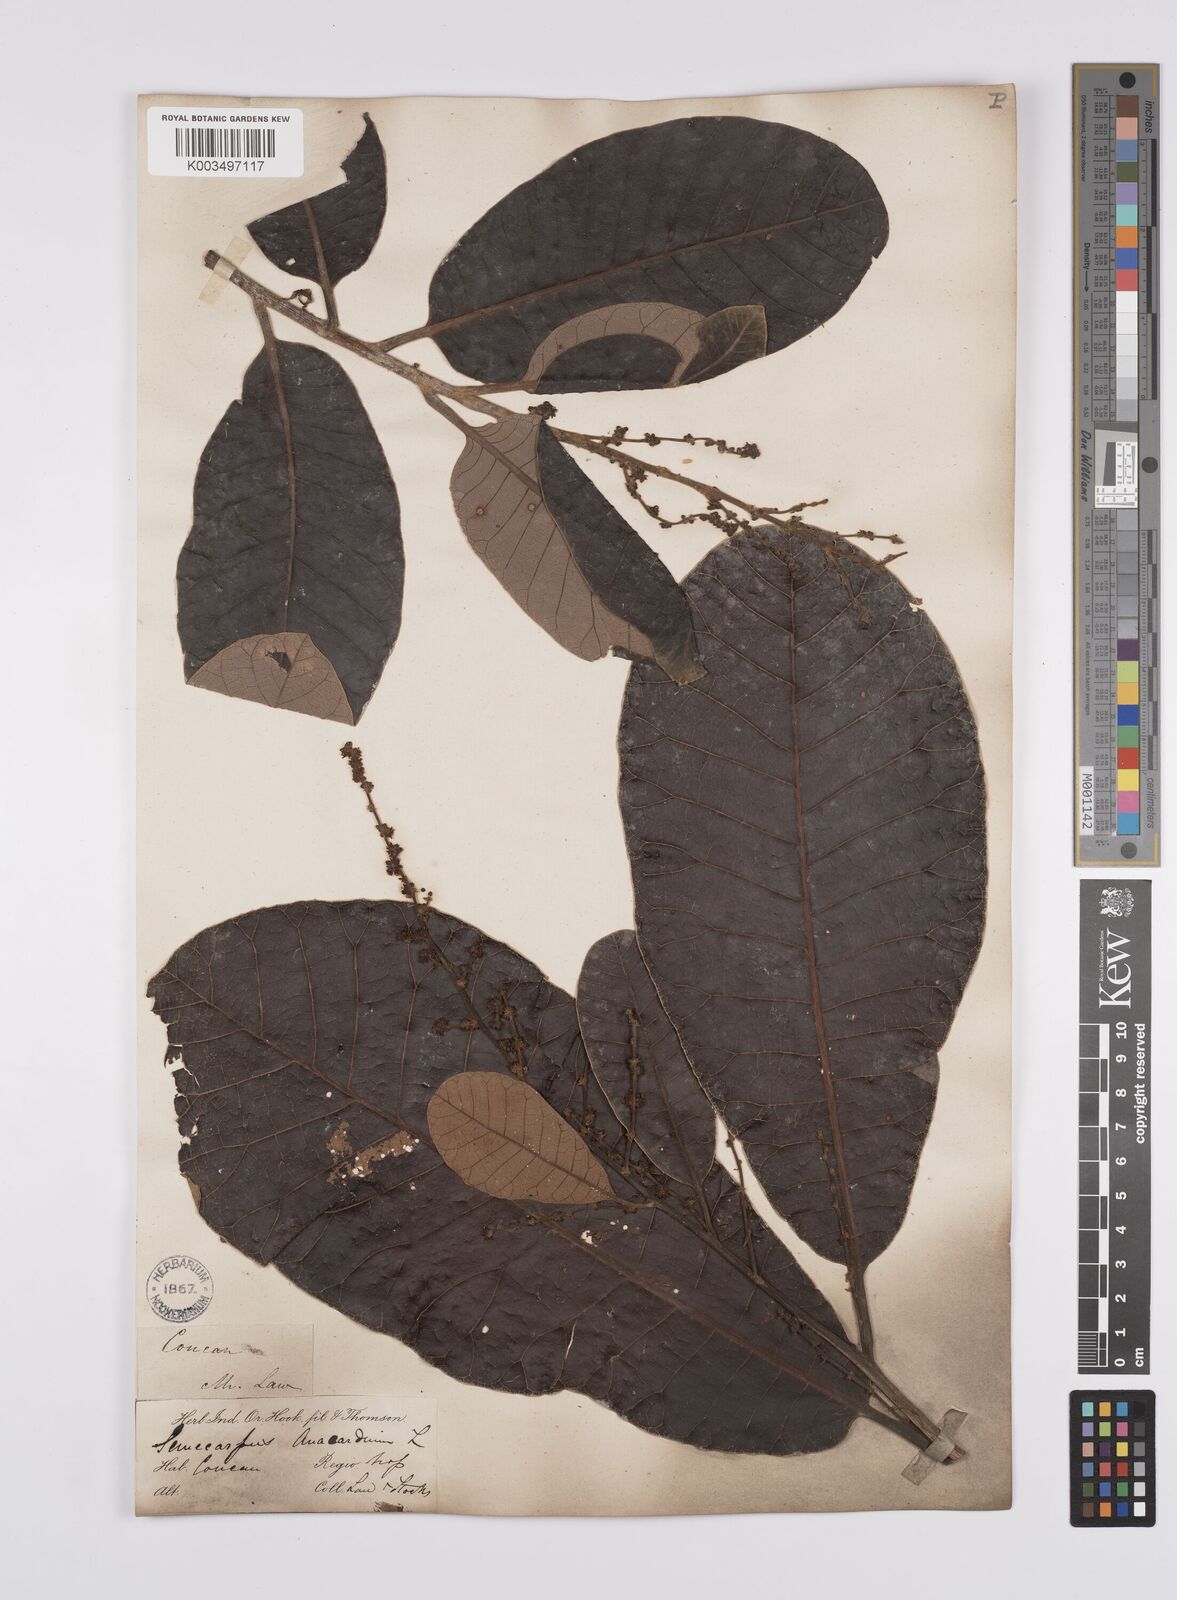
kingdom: Plantae
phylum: Tracheophyta
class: Magnoliopsida
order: Sapindales
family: Anacardiaceae
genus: Semecarpus
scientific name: Semecarpus anacardium
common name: Marking nut-tree
